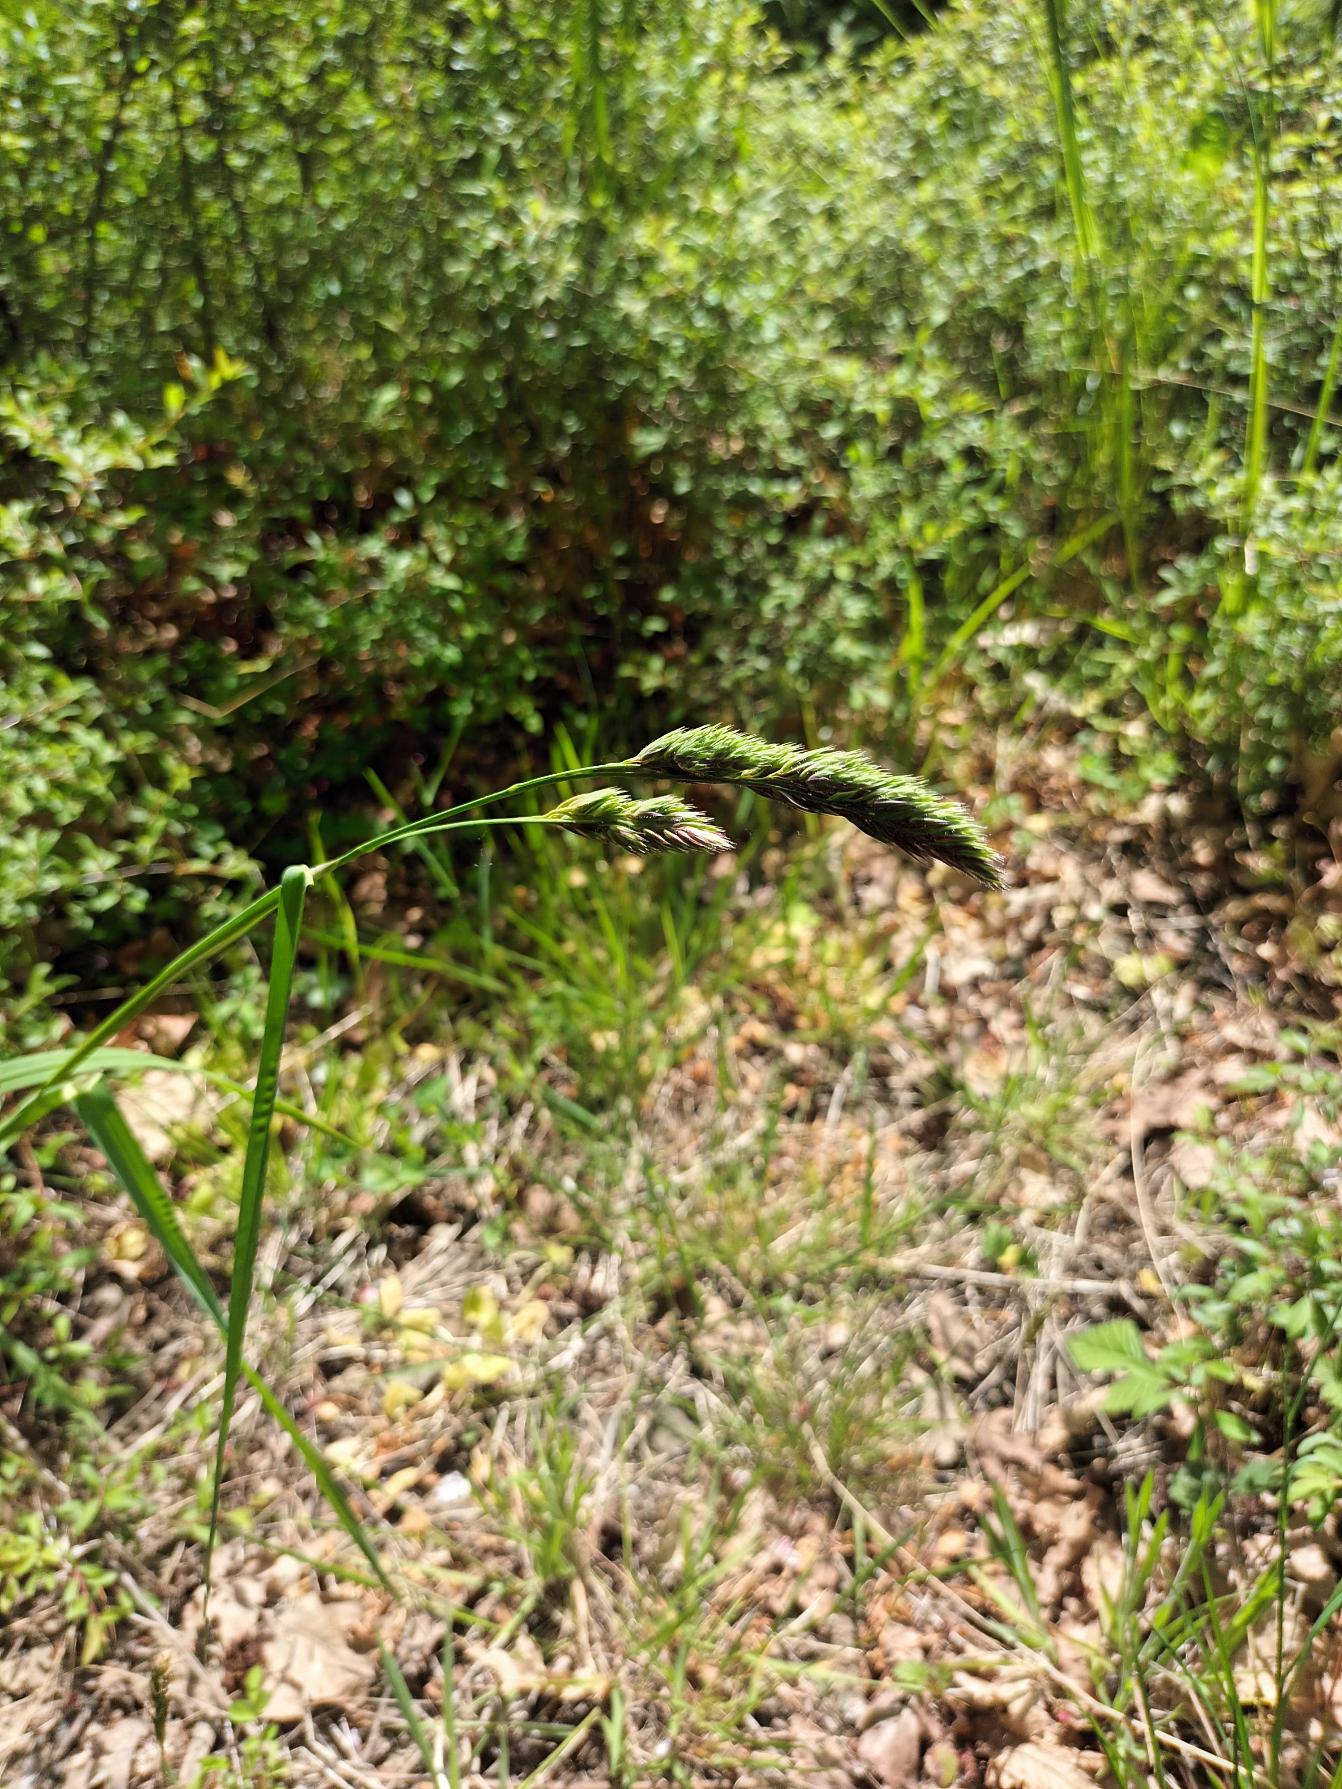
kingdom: Plantae
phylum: Tracheophyta
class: Liliopsida
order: Poales
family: Poaceae
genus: Dactylis
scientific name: Dactylis glomerata
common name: Almindelig hundegræs
